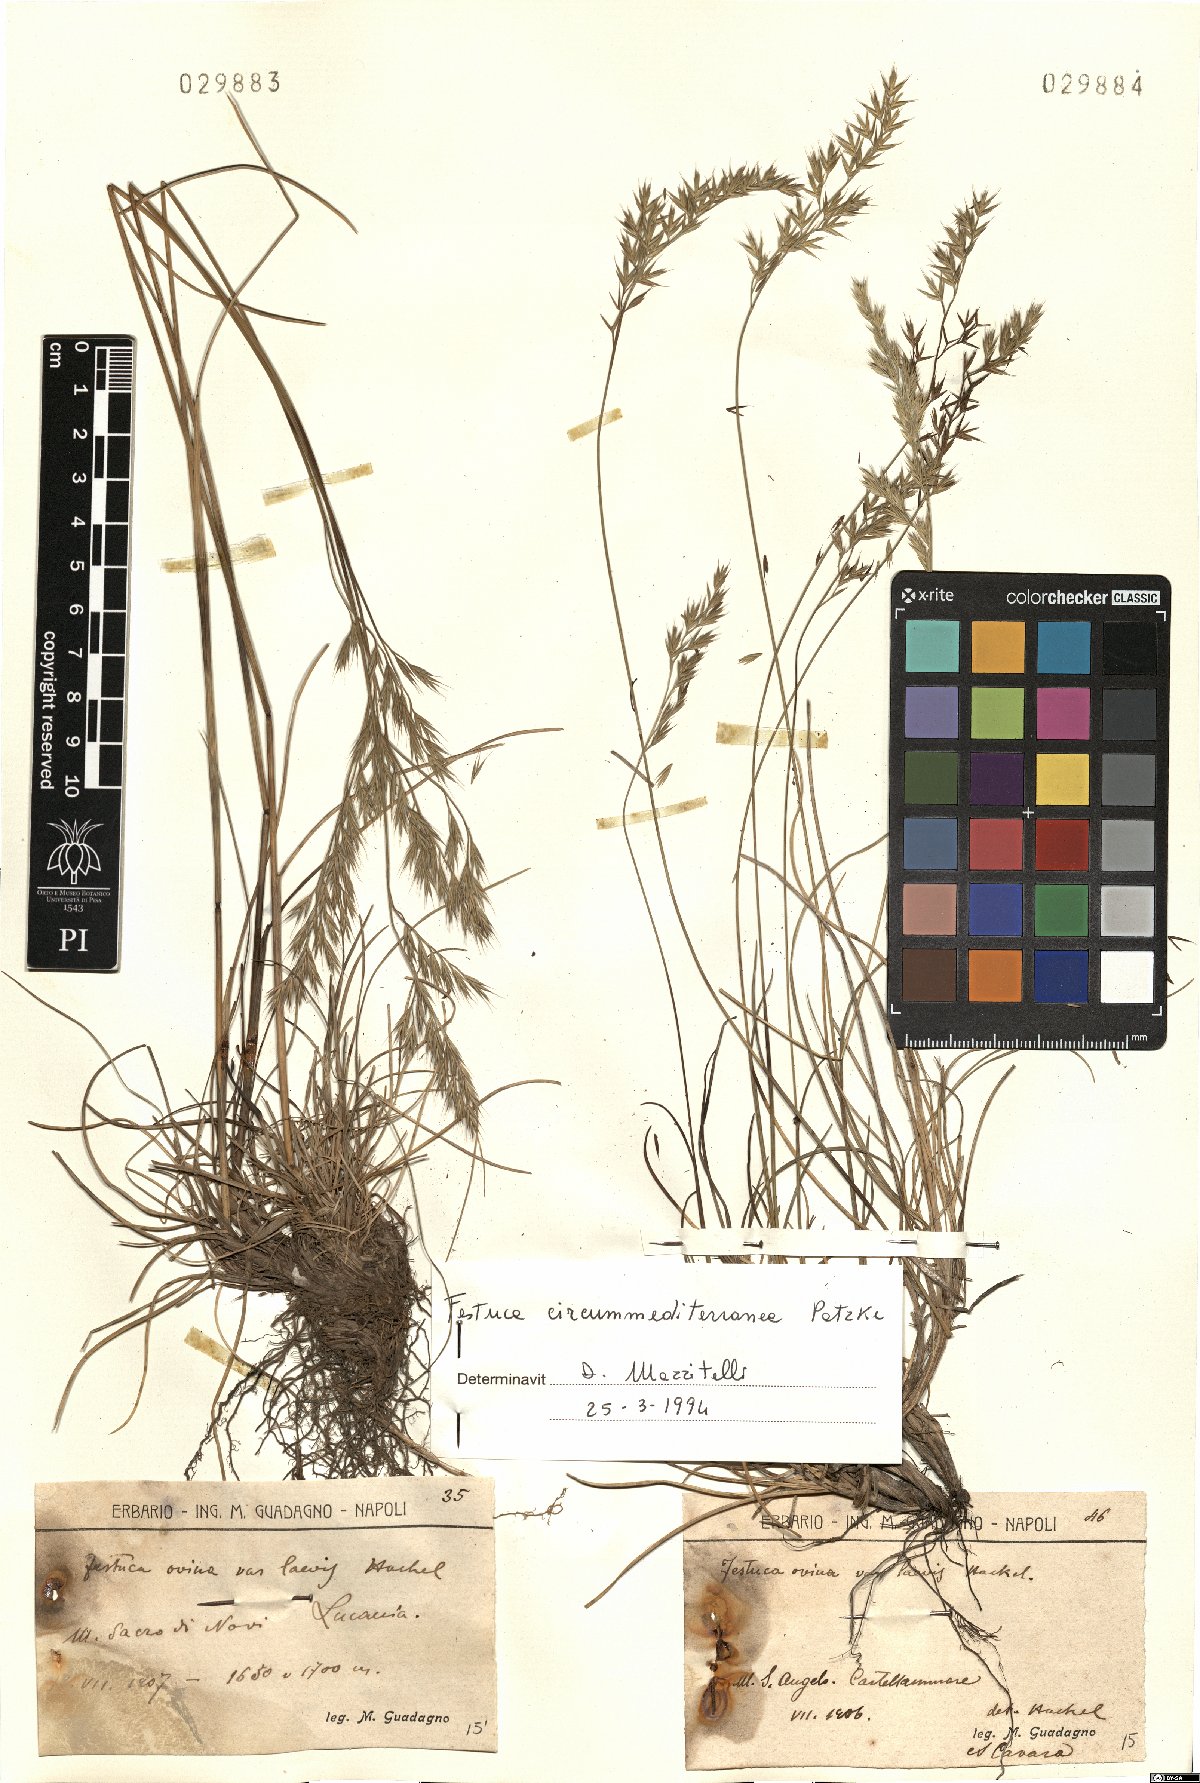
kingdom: Plantae
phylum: Tracheophyta
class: Liliopsida
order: Poales
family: Poaceae
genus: Festuca
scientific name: Festuca circummediterranea
